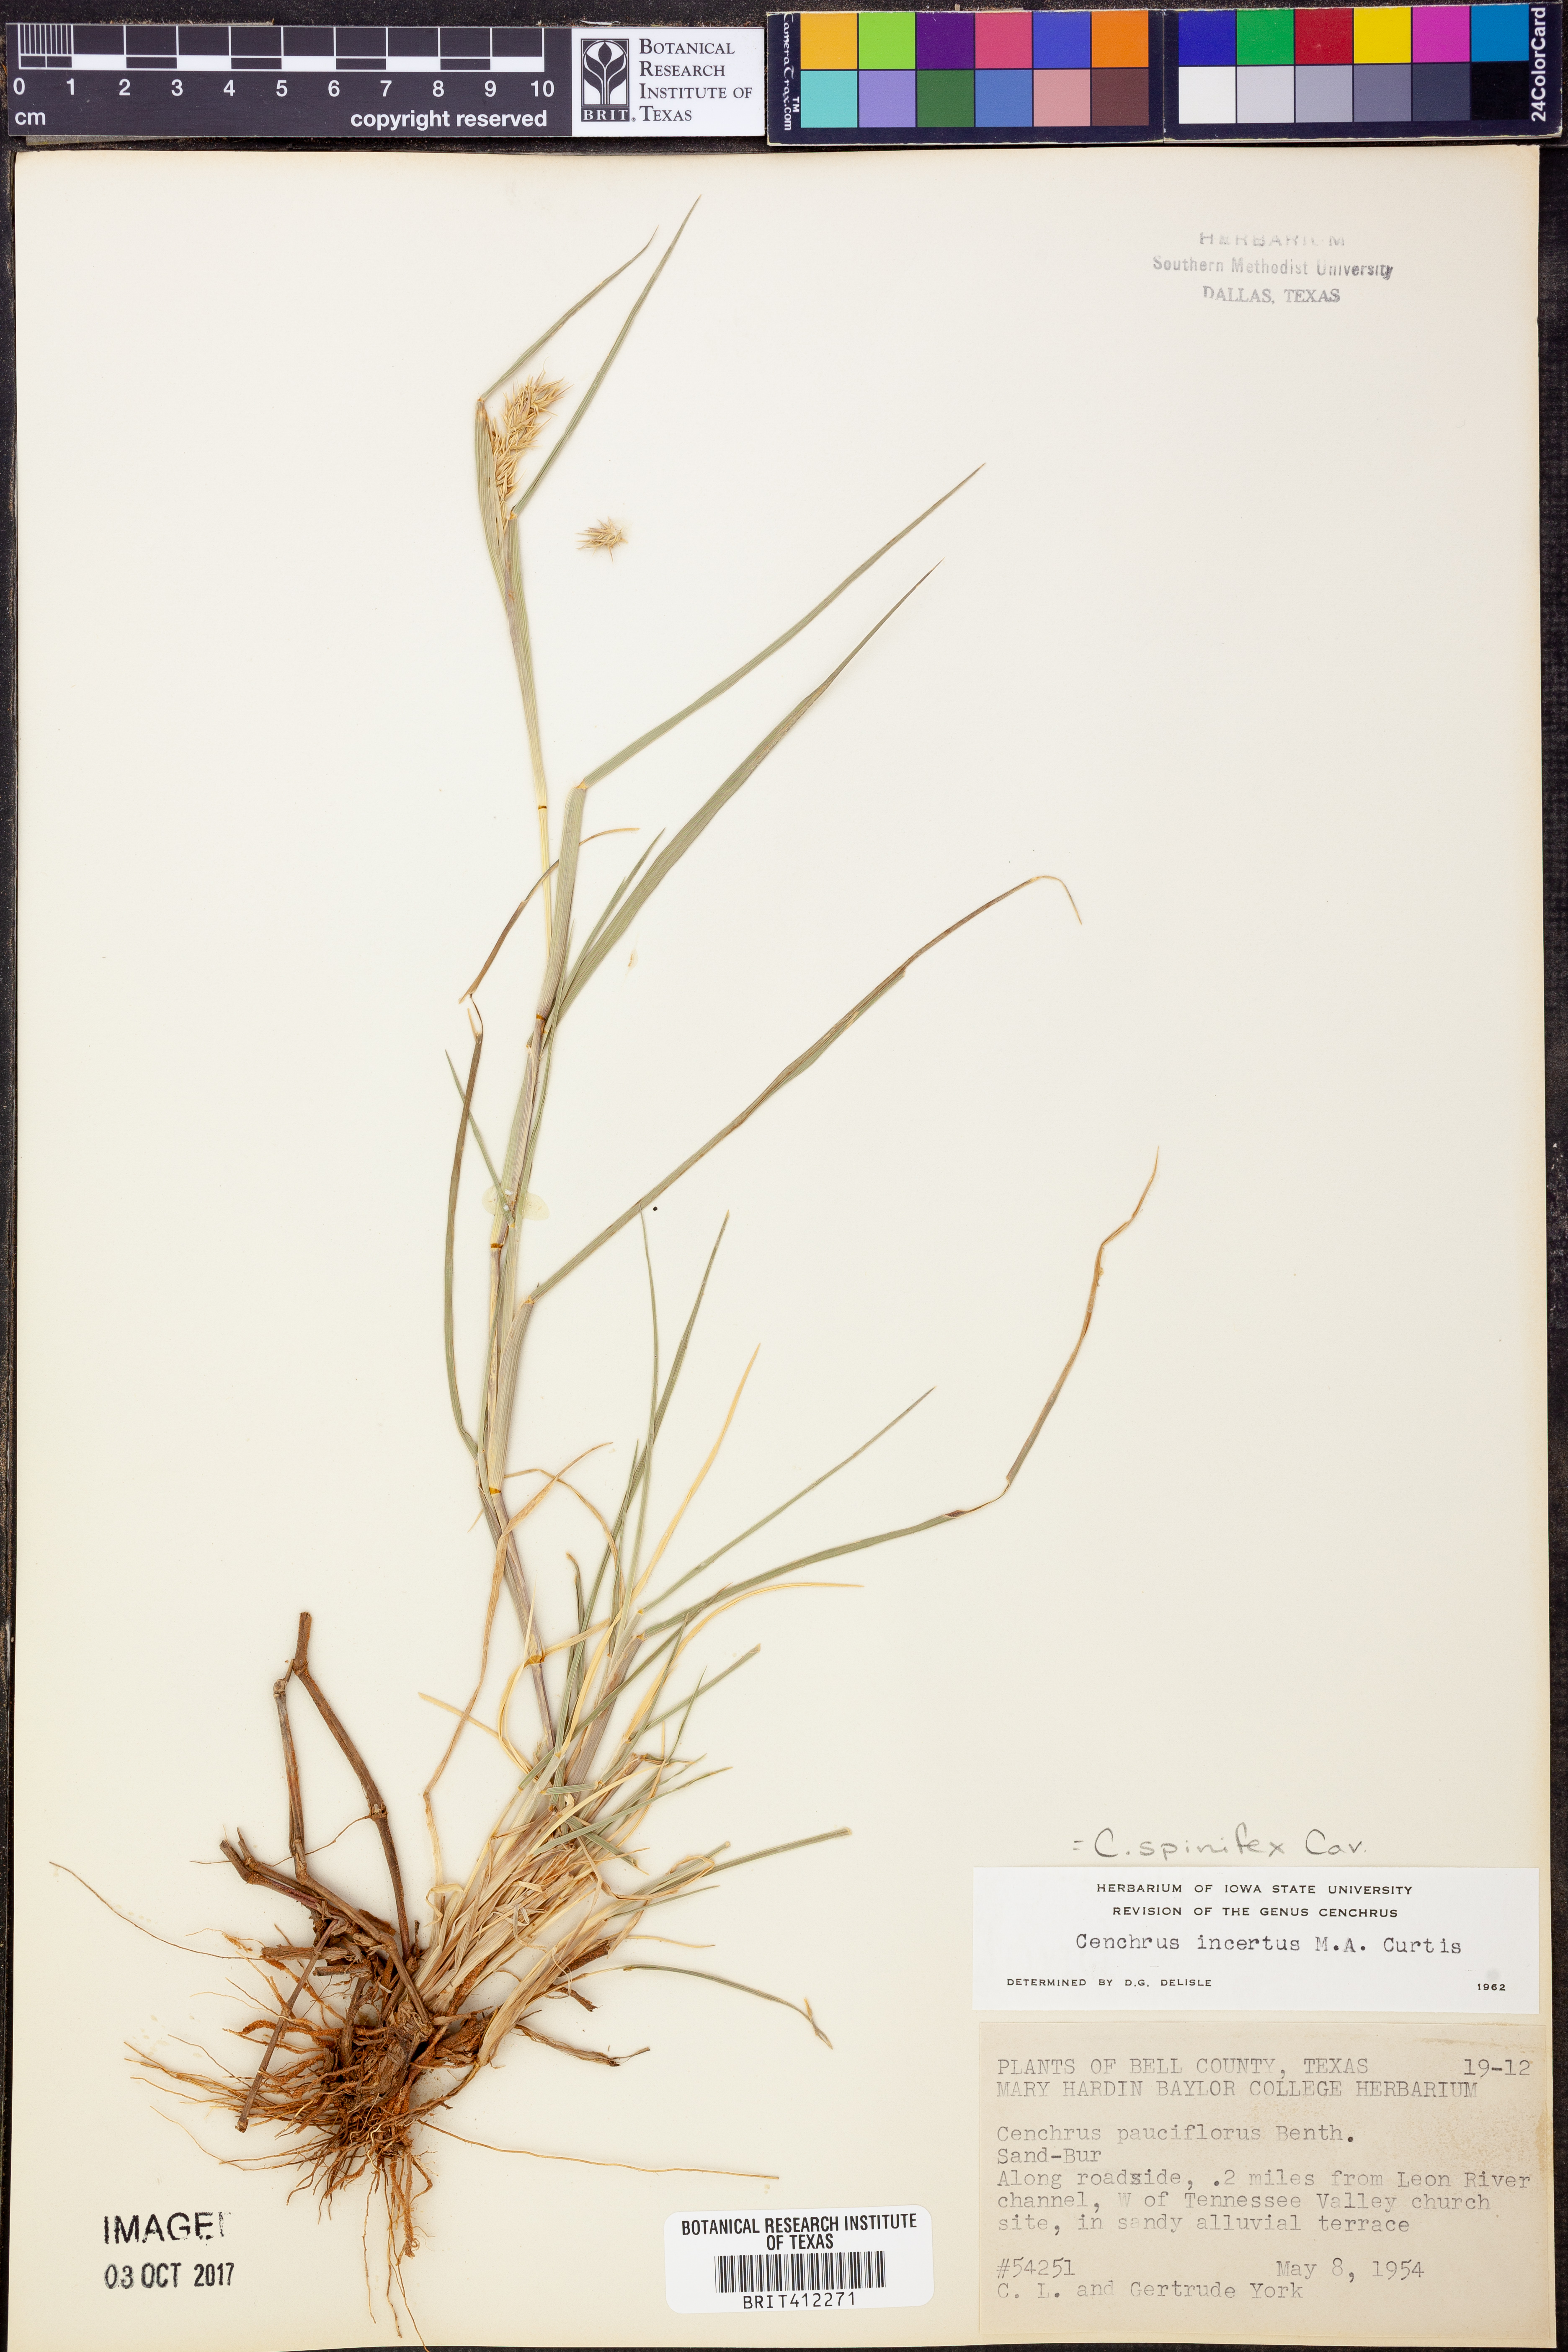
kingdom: Plantae
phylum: Tracheophyta
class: Liliopsida
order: Poales
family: Poaceae
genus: Cenchrus
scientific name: Cenchrus spinifex
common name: Coast sandbur
